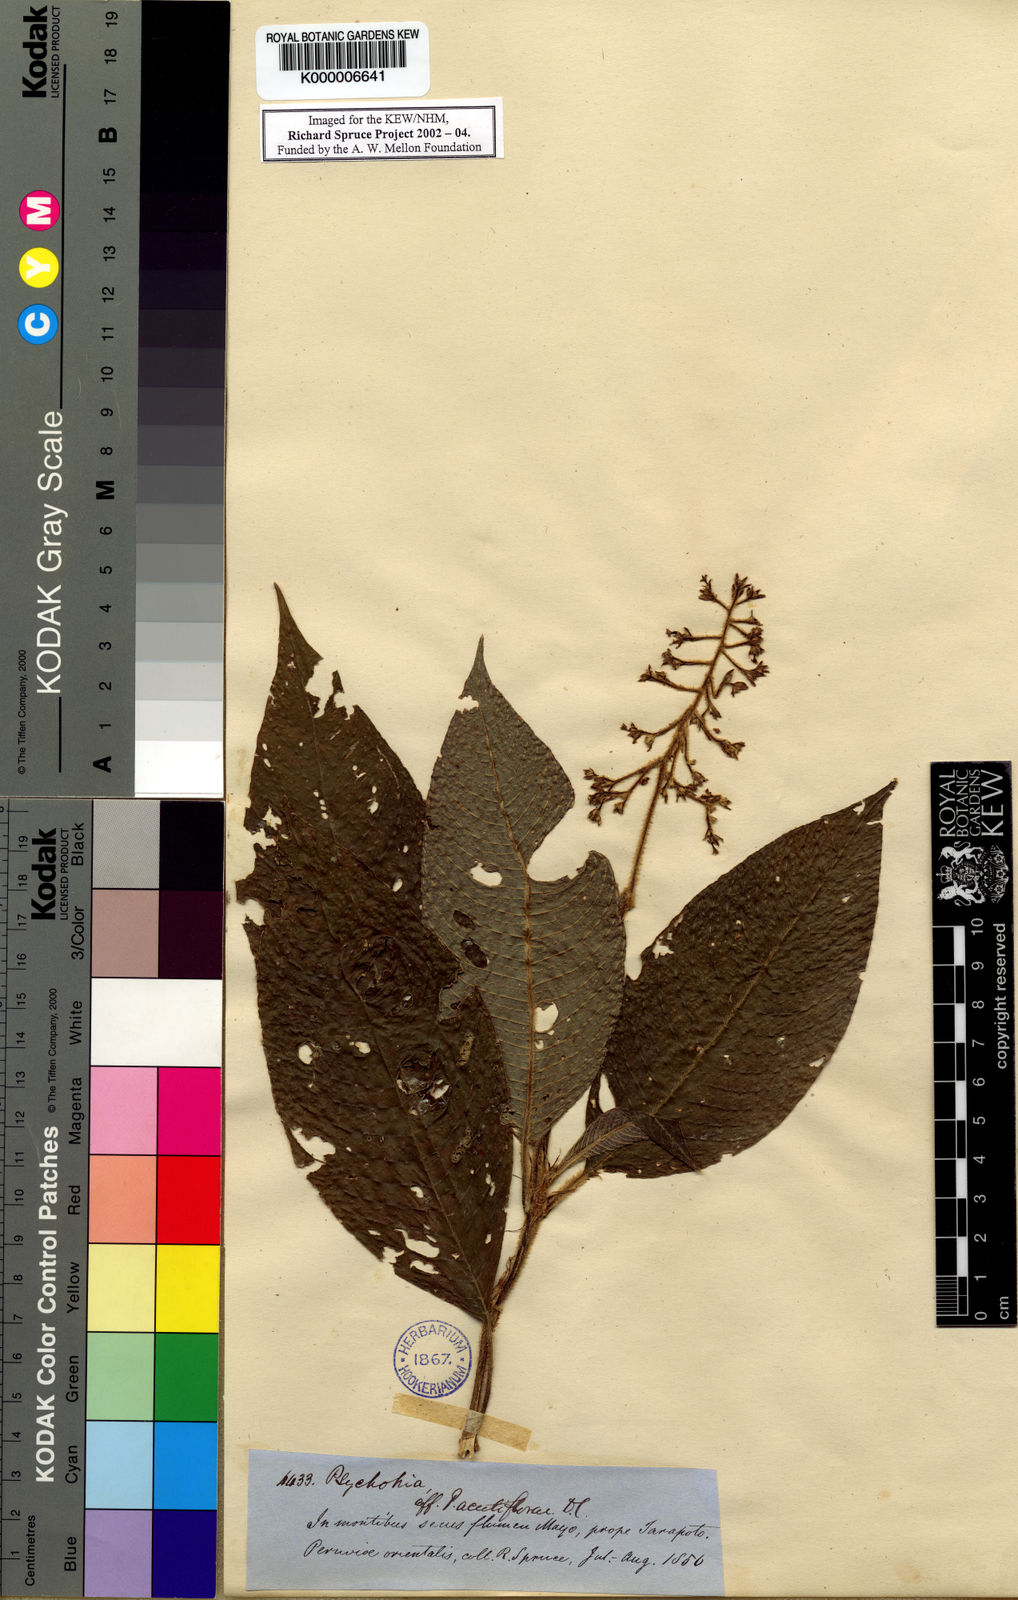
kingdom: Plantae
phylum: Tracheophyta
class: Magnoliopsida
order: Gentianales
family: Rubiaceae
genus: Palicourea
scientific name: Palicourea pilosa
